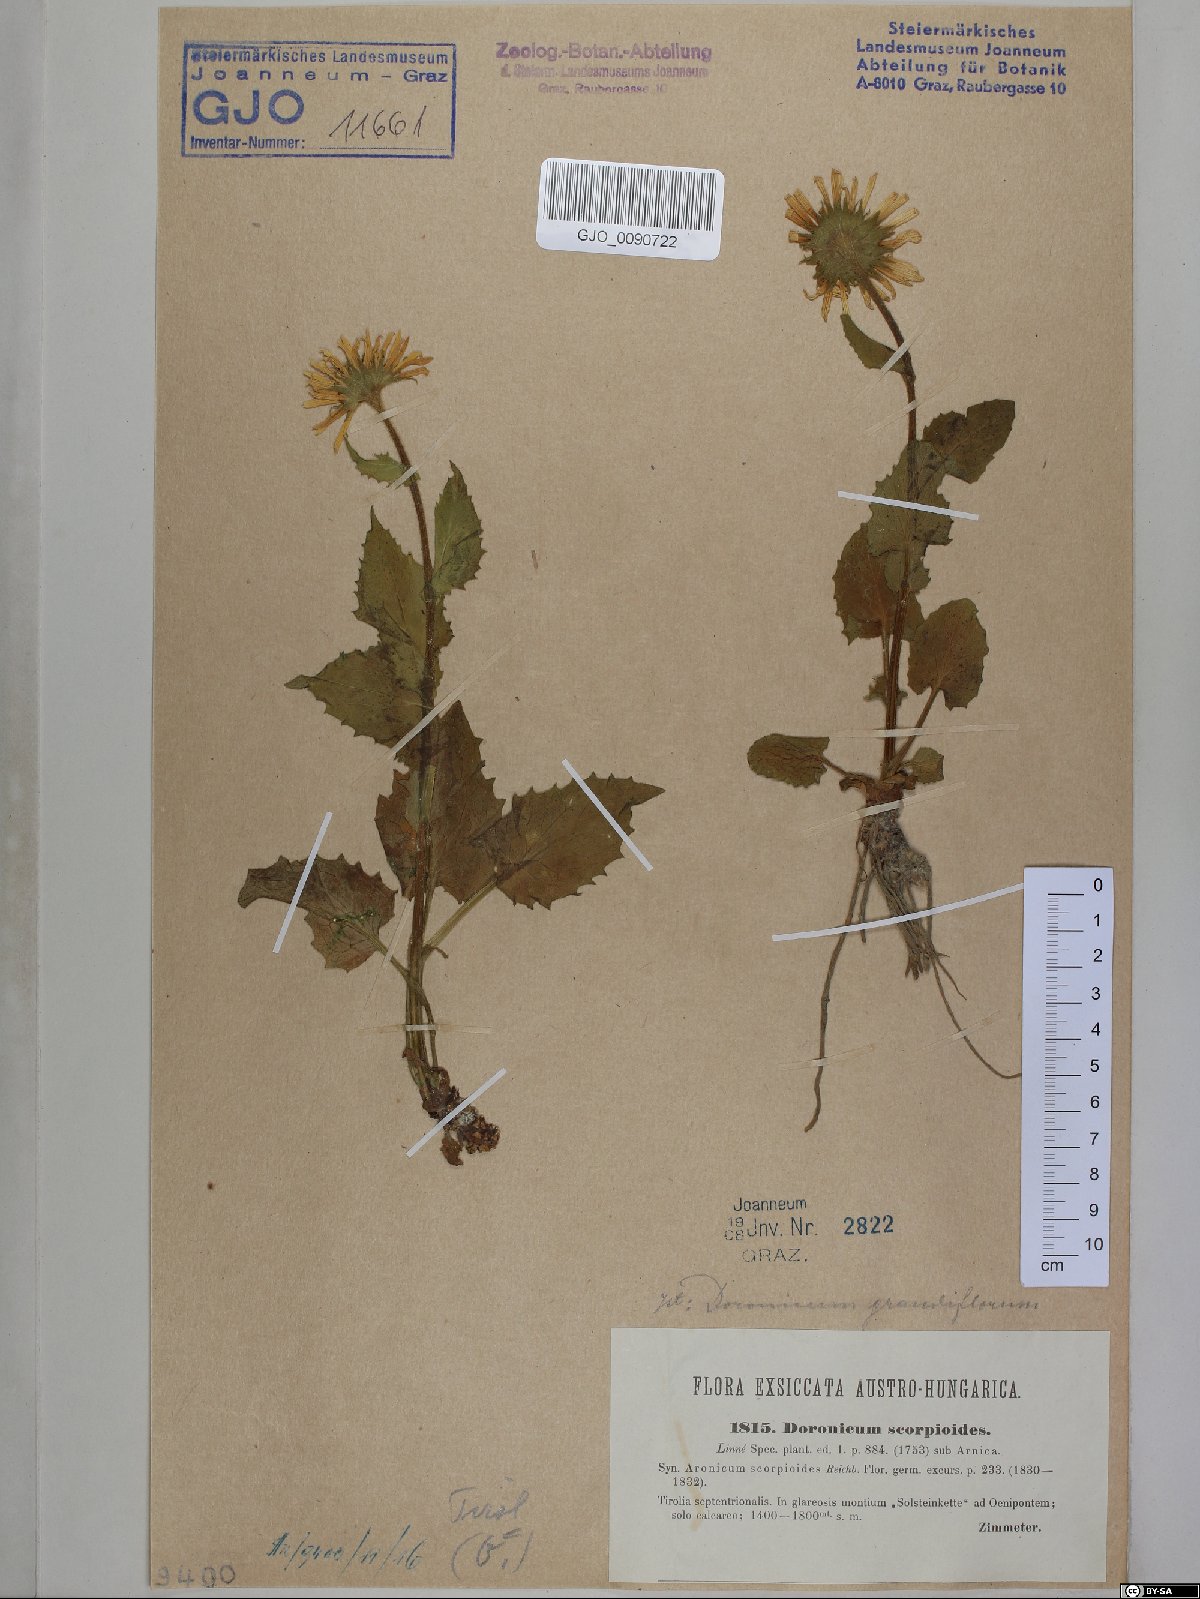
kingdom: Plantae
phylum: Tracheophyta
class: Magnoliopsida
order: Asterales
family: Asteraceae
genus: Doronicum
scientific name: Doronicum grandiflorum
